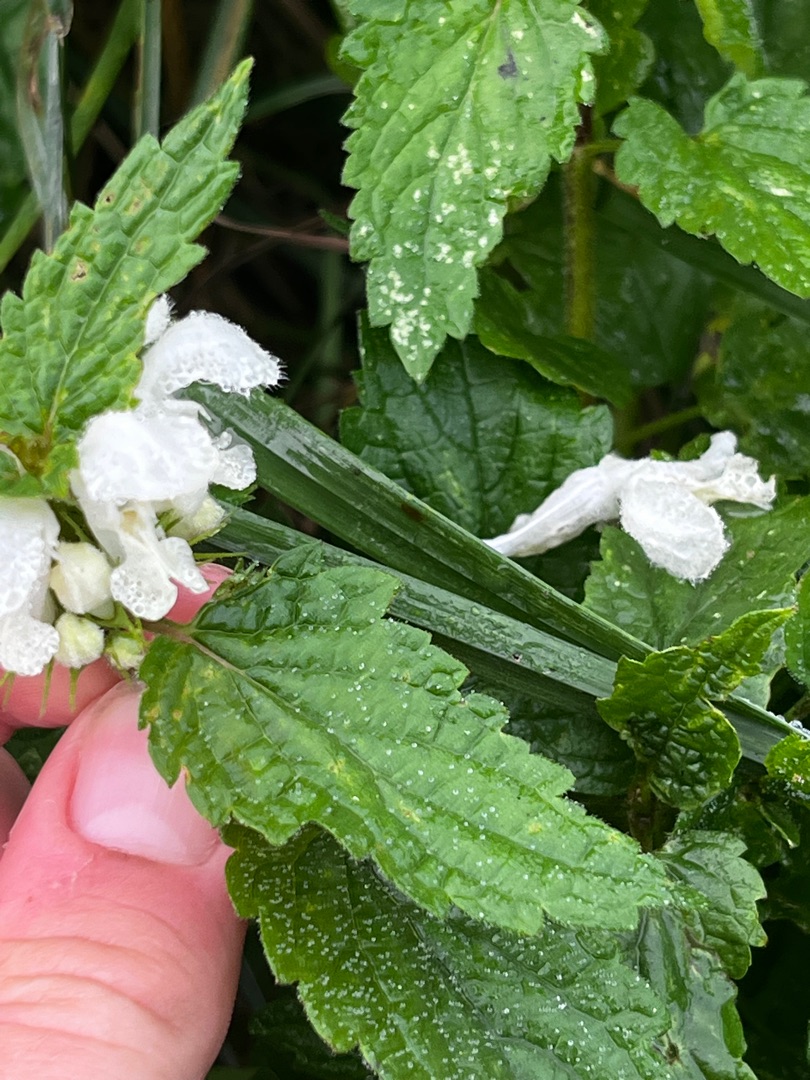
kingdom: Plantae
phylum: Tracheophyta
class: Magnoliopsida
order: Lamiales
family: Lamiaceae
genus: Lamium
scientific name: Lamium album
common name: Døvnælde
